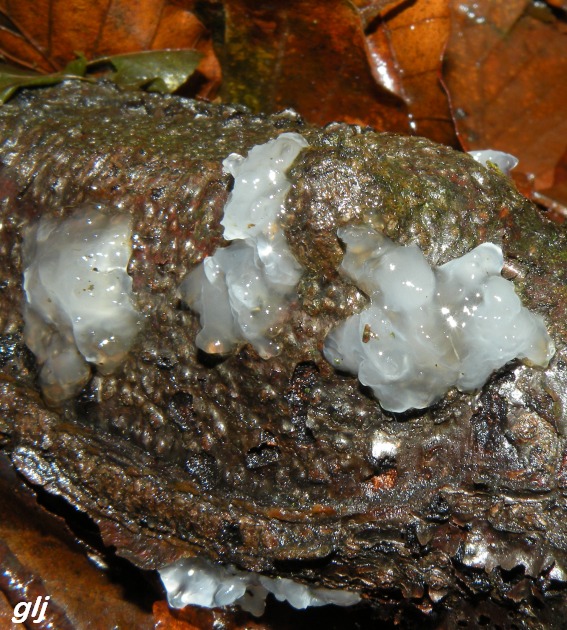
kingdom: Fungi
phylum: Basidiomycota
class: Agaricomycetes
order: Auriculariales
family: Hyaloriaceae
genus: Myxarium
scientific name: Myxarium nucleatum
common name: klar bævretop
